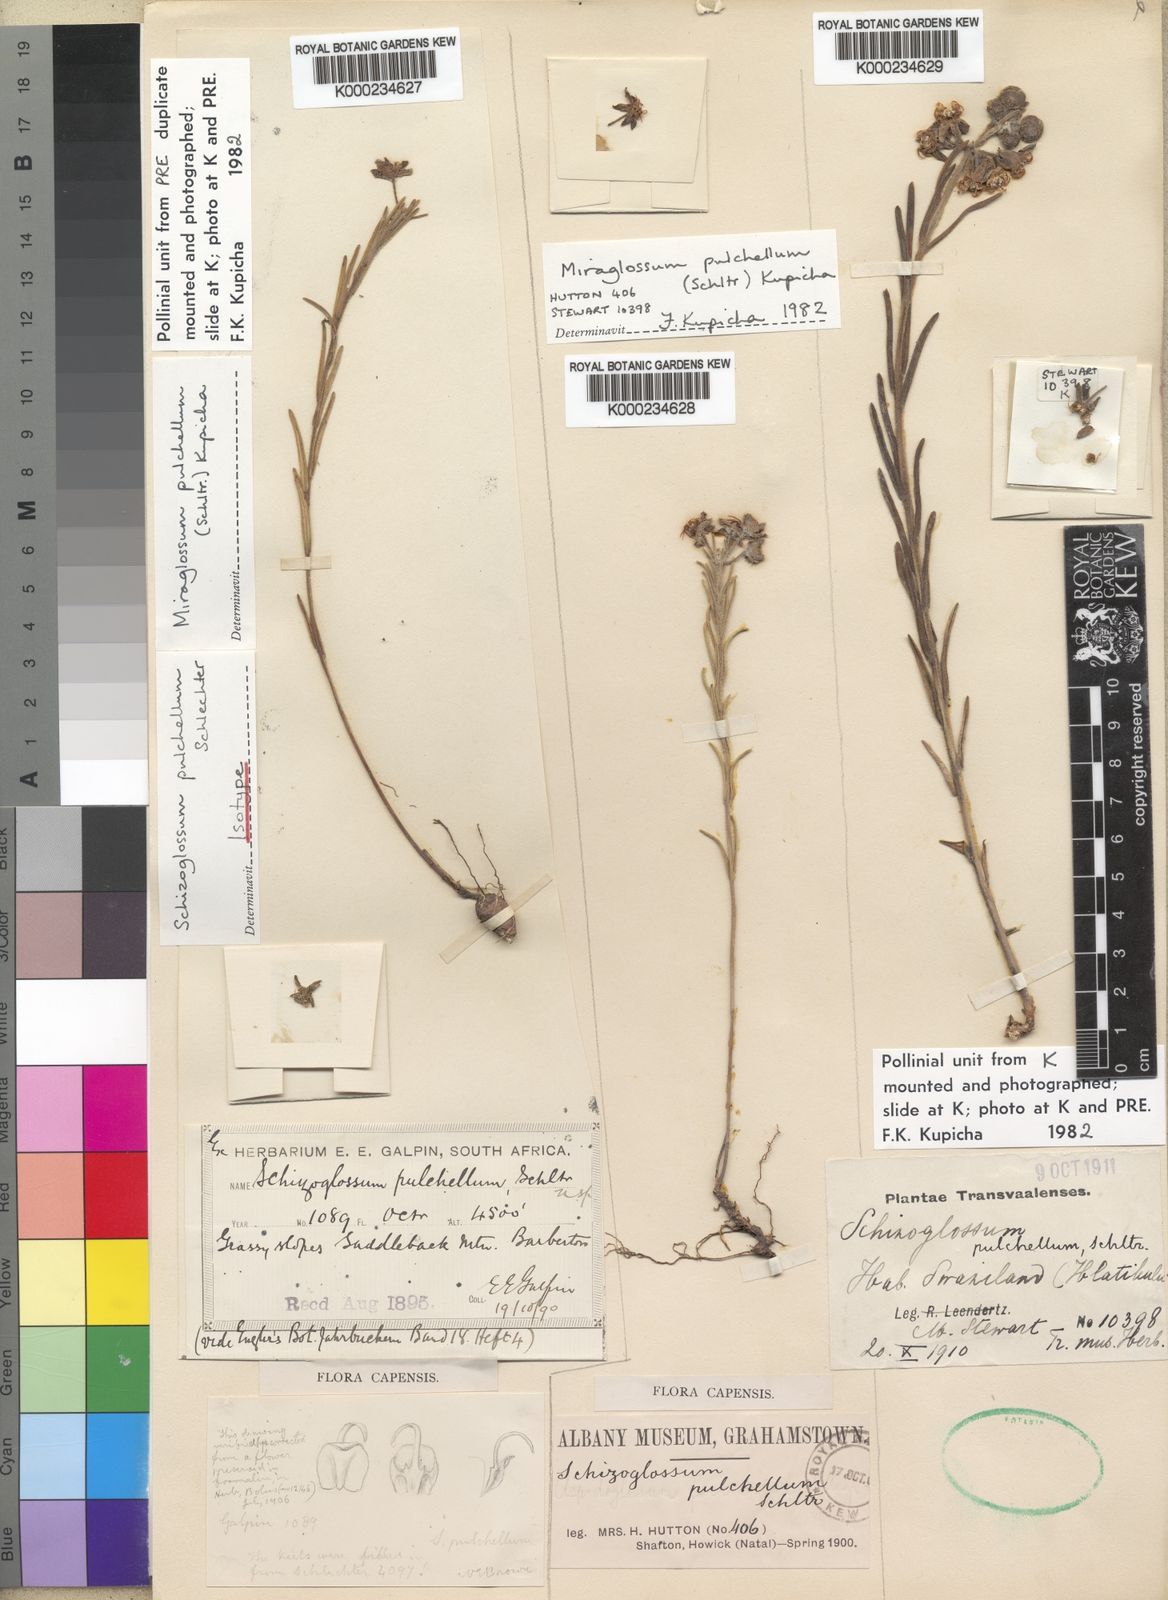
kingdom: Plantae
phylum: Tracheophyta
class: Magnoliopsida
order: Gentianales
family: Apocynaceae
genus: Miraglossum
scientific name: Miraglossum pulchellum
